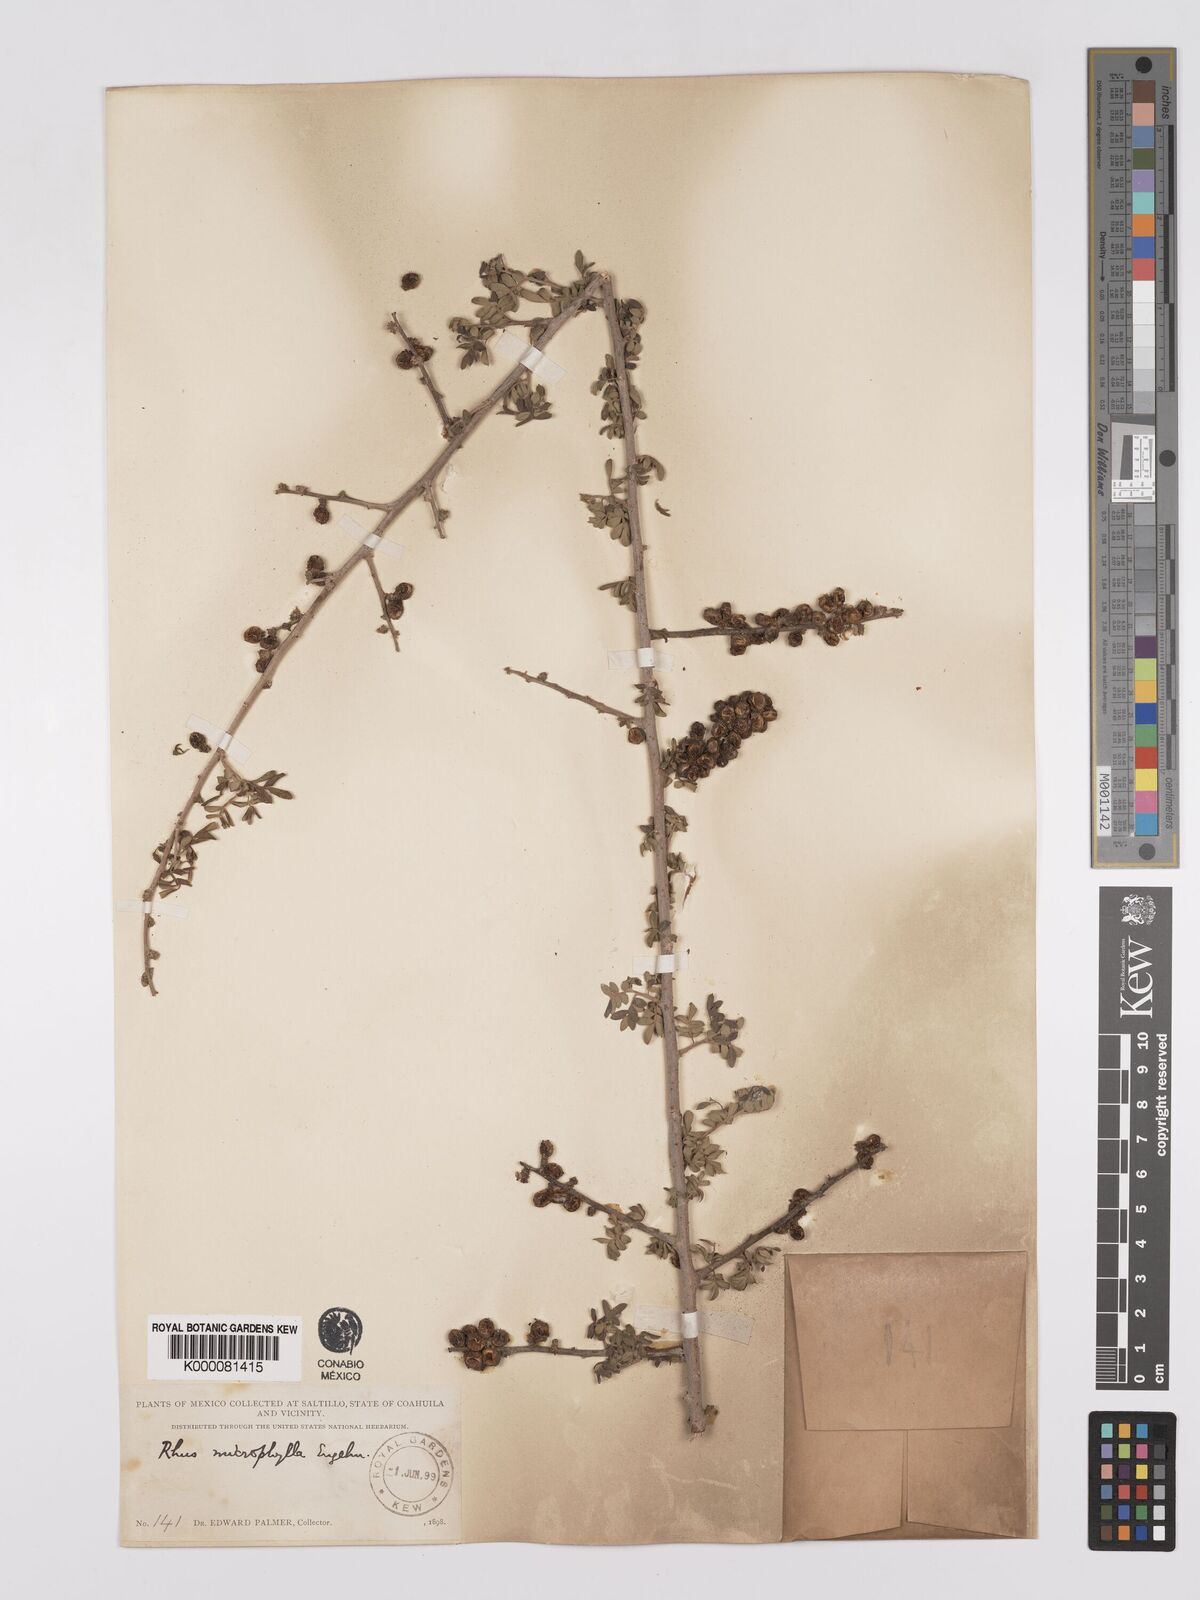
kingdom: Plantae
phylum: Tracheophyta
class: Magnoliopsida
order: Sapindales
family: Anacardiaceae
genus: Rhus
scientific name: Rhus
